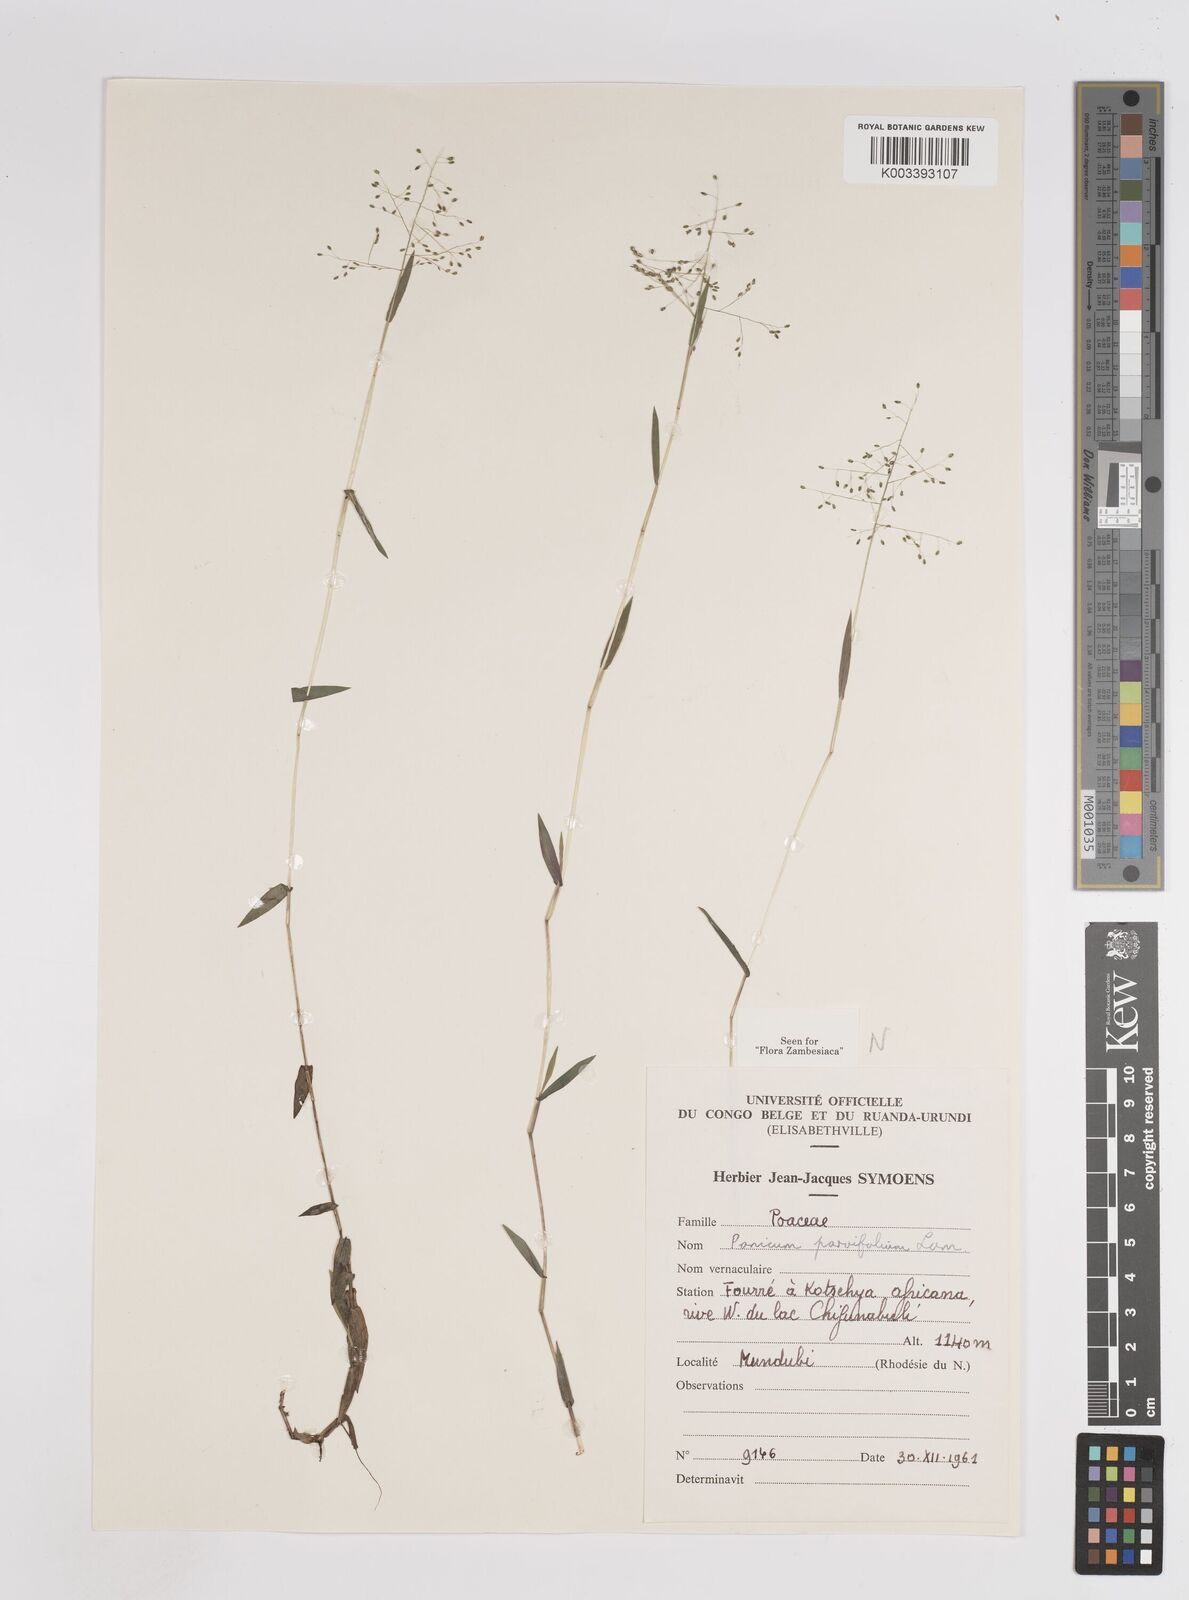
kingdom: Plantae
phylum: Tracheophyta
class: Liliopsida
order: Poales
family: Poaceae
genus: Trichanthecium
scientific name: Trichanthecium parvifolium
